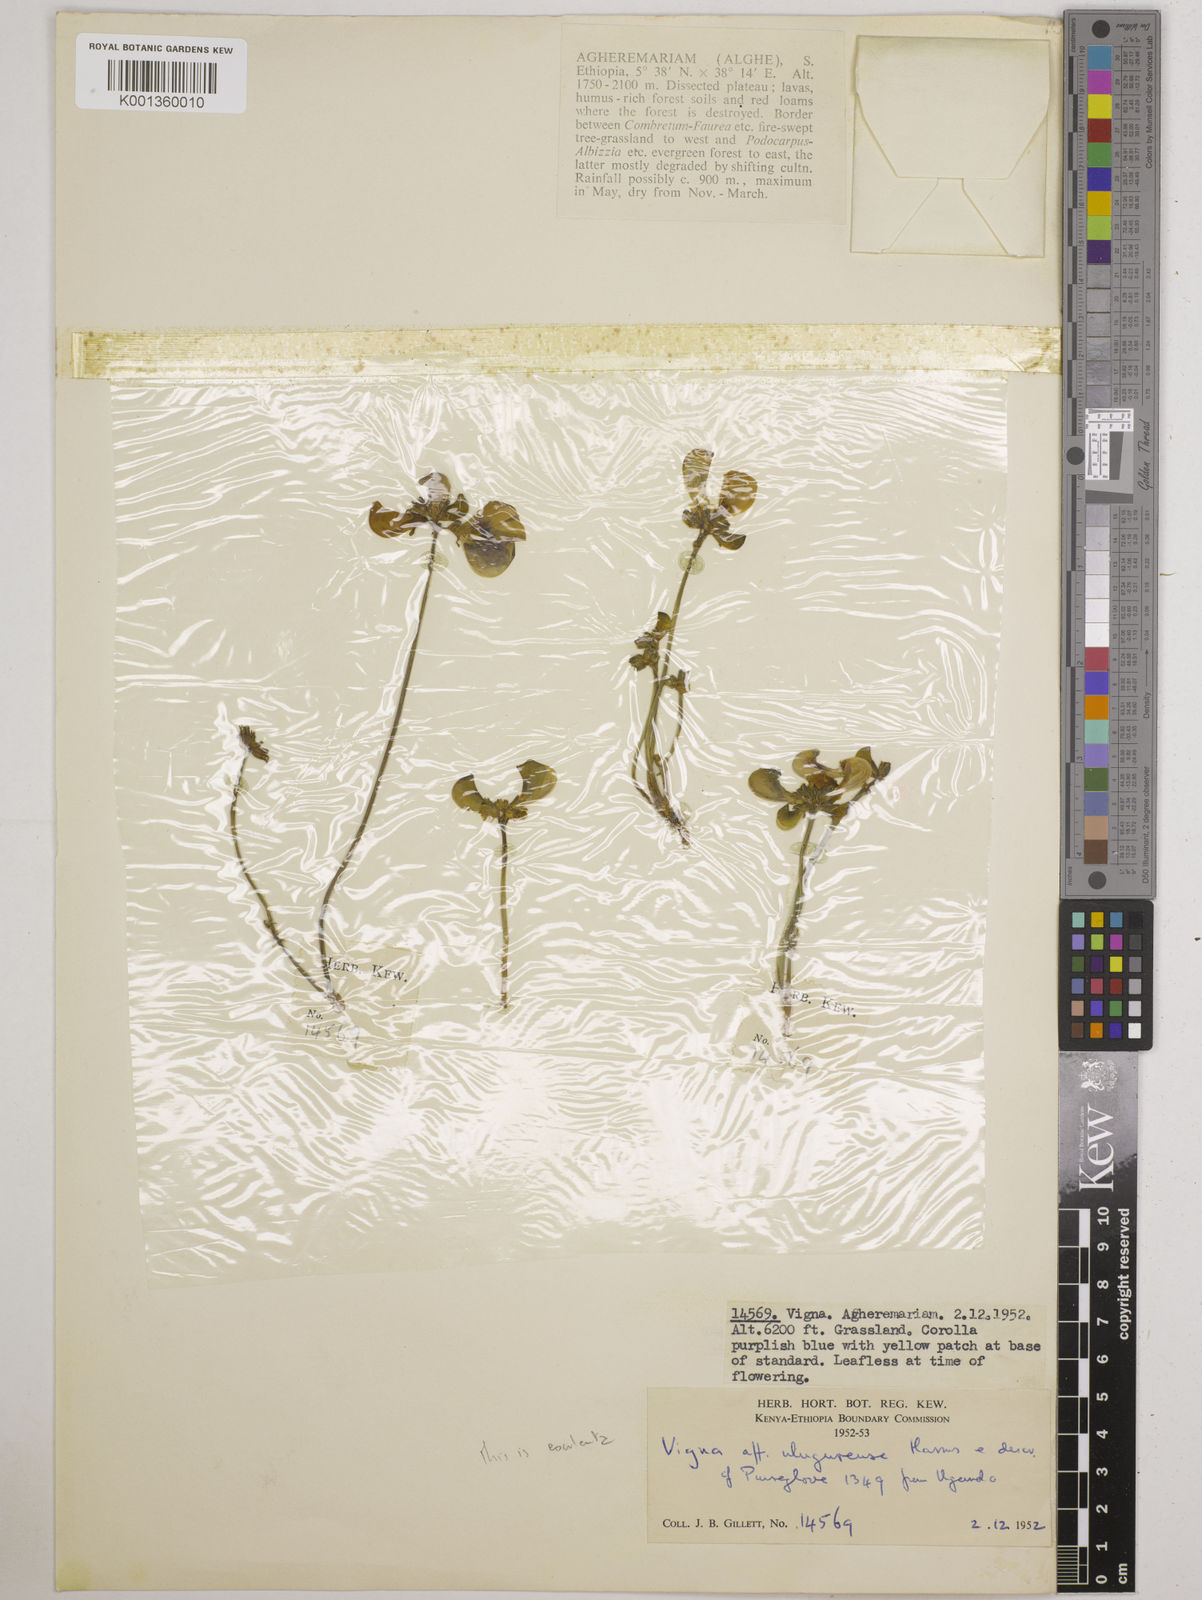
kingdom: Plantae
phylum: Tracheophyta
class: Magnoliopsida
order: Fabales
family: Fabaceae
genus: Vigna
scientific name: Vigna frutescens
